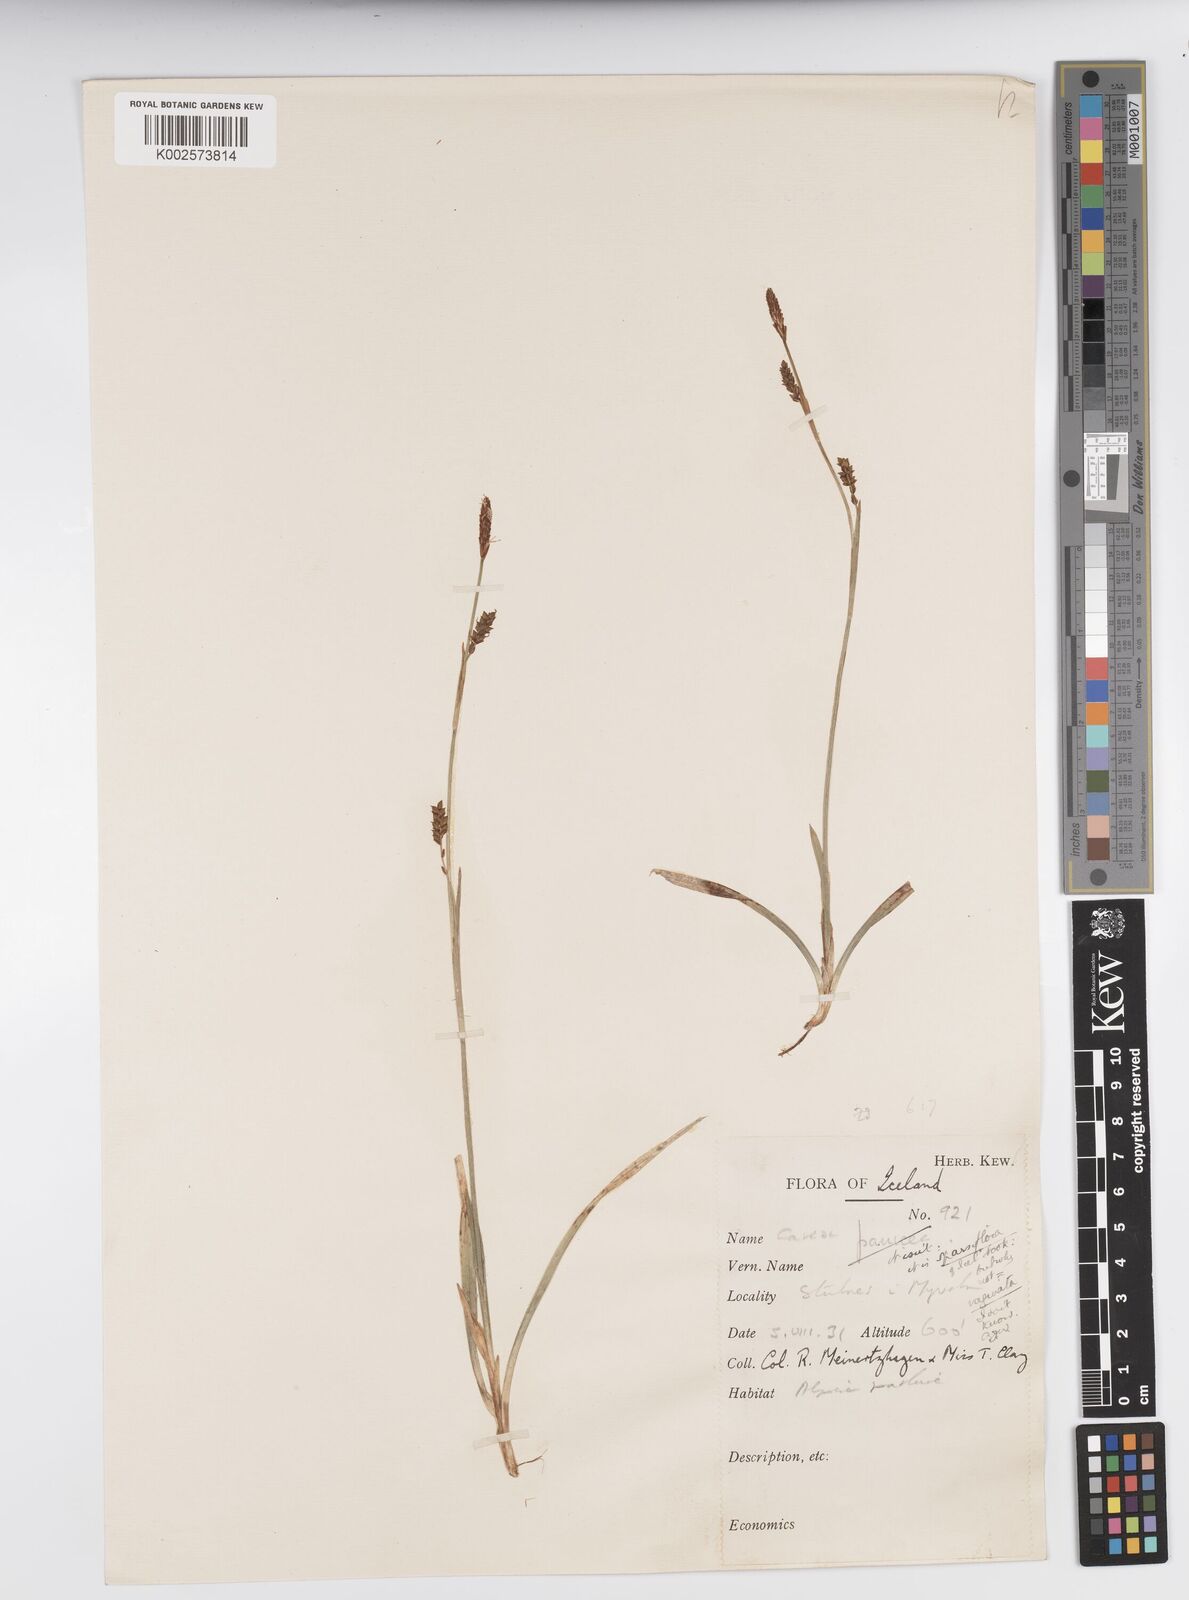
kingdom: Plantae
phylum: Tracheophyta
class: Liliopsida
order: Poales
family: Cyperaceae
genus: Carex
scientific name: Carex vaginata
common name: Sheathed sedge
